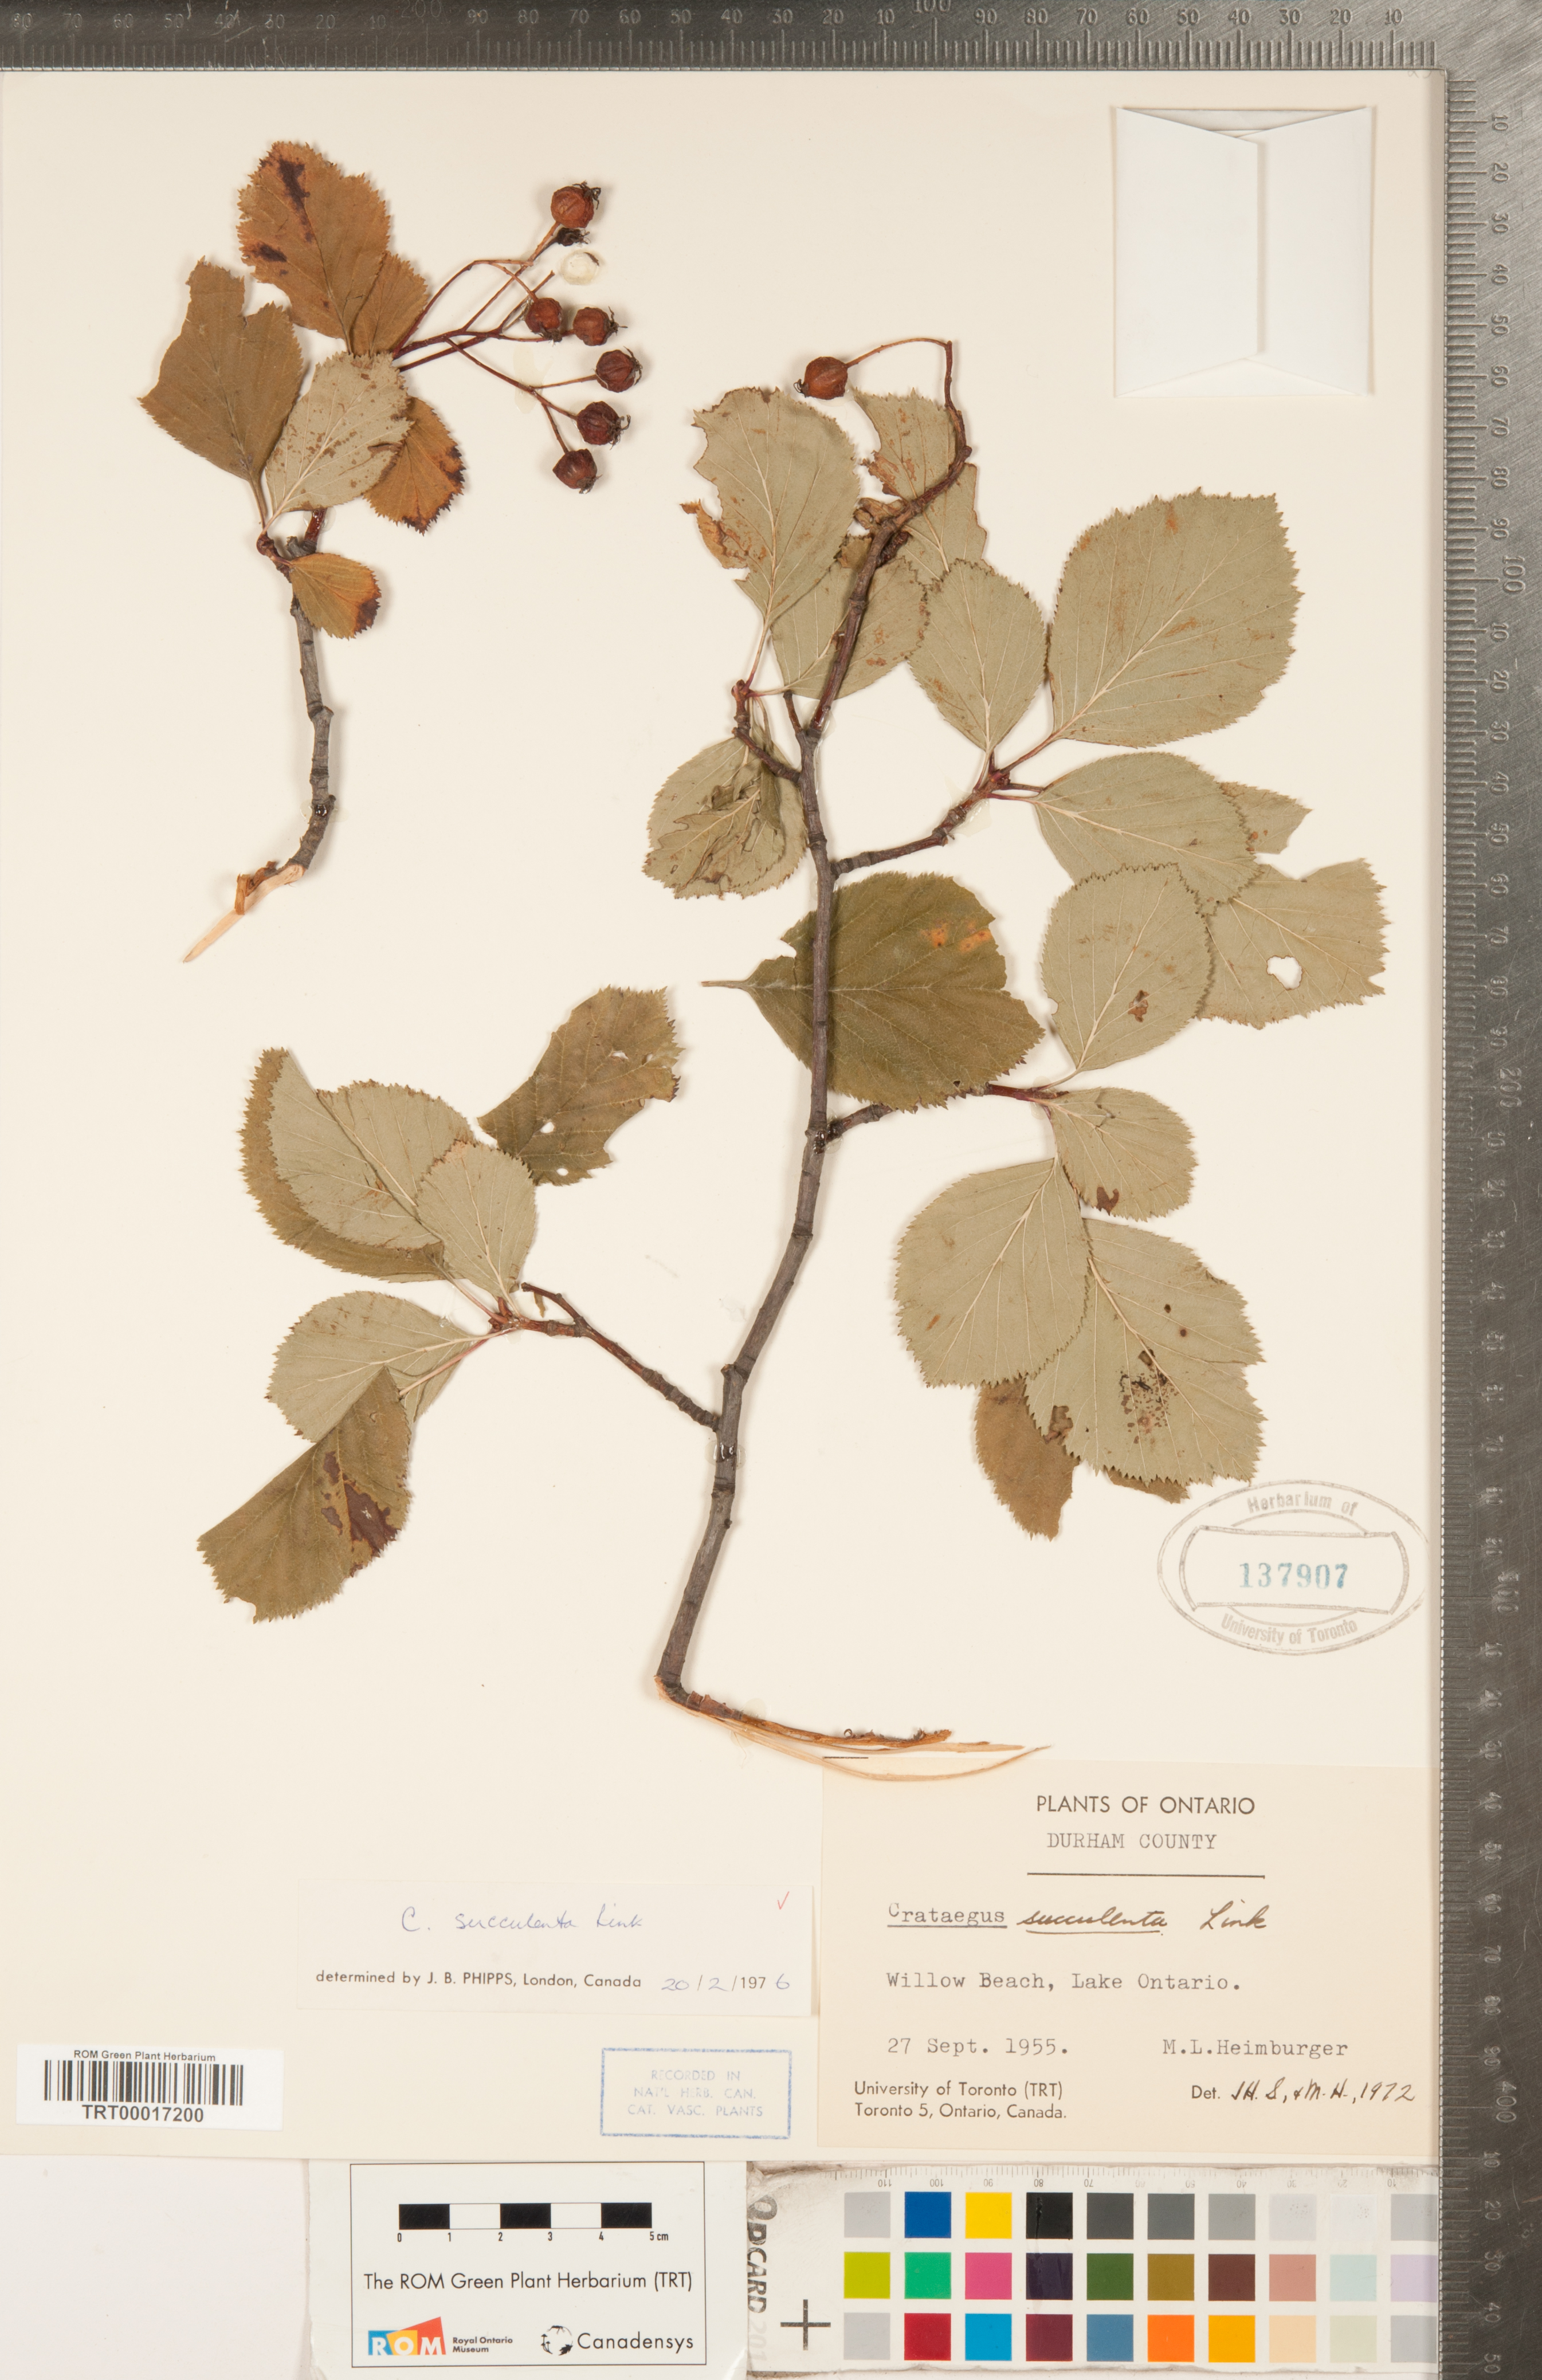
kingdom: Plantae
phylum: Tracheophyta
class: Magnoliopsida
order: Rosales
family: Rosaceae
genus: Crataegus
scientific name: Crataegus succulenta
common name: Fleshy hawthorn
